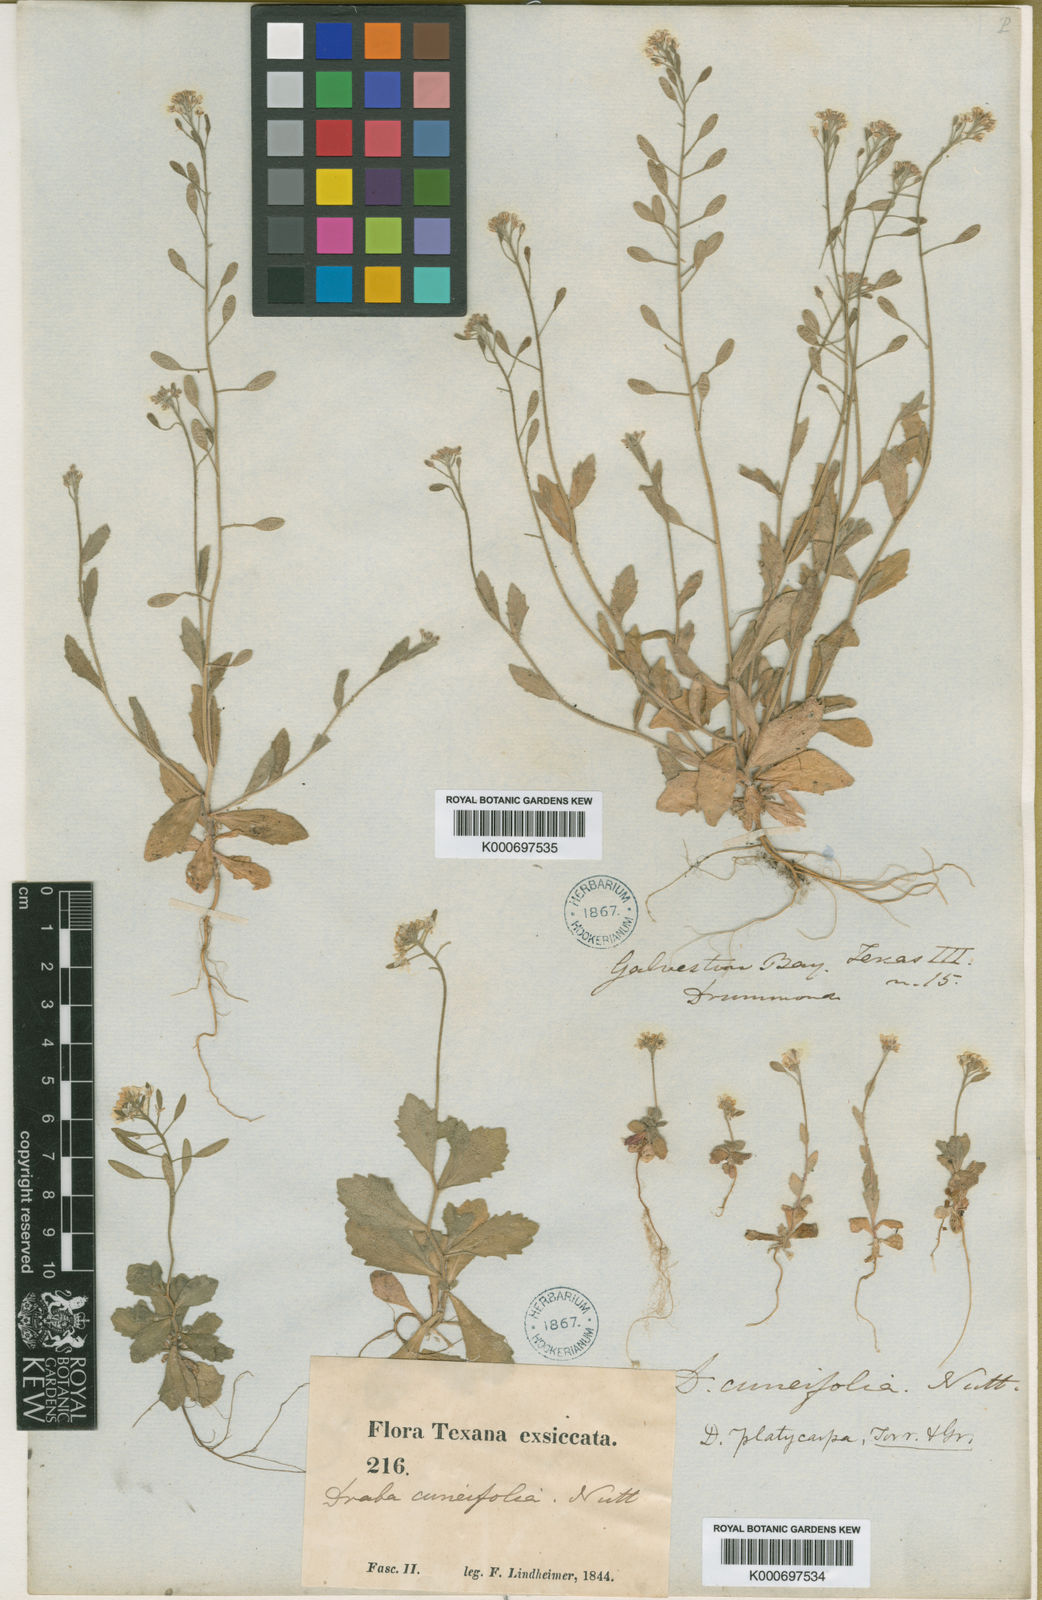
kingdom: Plantae
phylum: Tracheophyta
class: Magnoliopsida
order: Brassicales
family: Brassicaceae
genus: Tomostima
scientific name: Tomostima platycarpa
